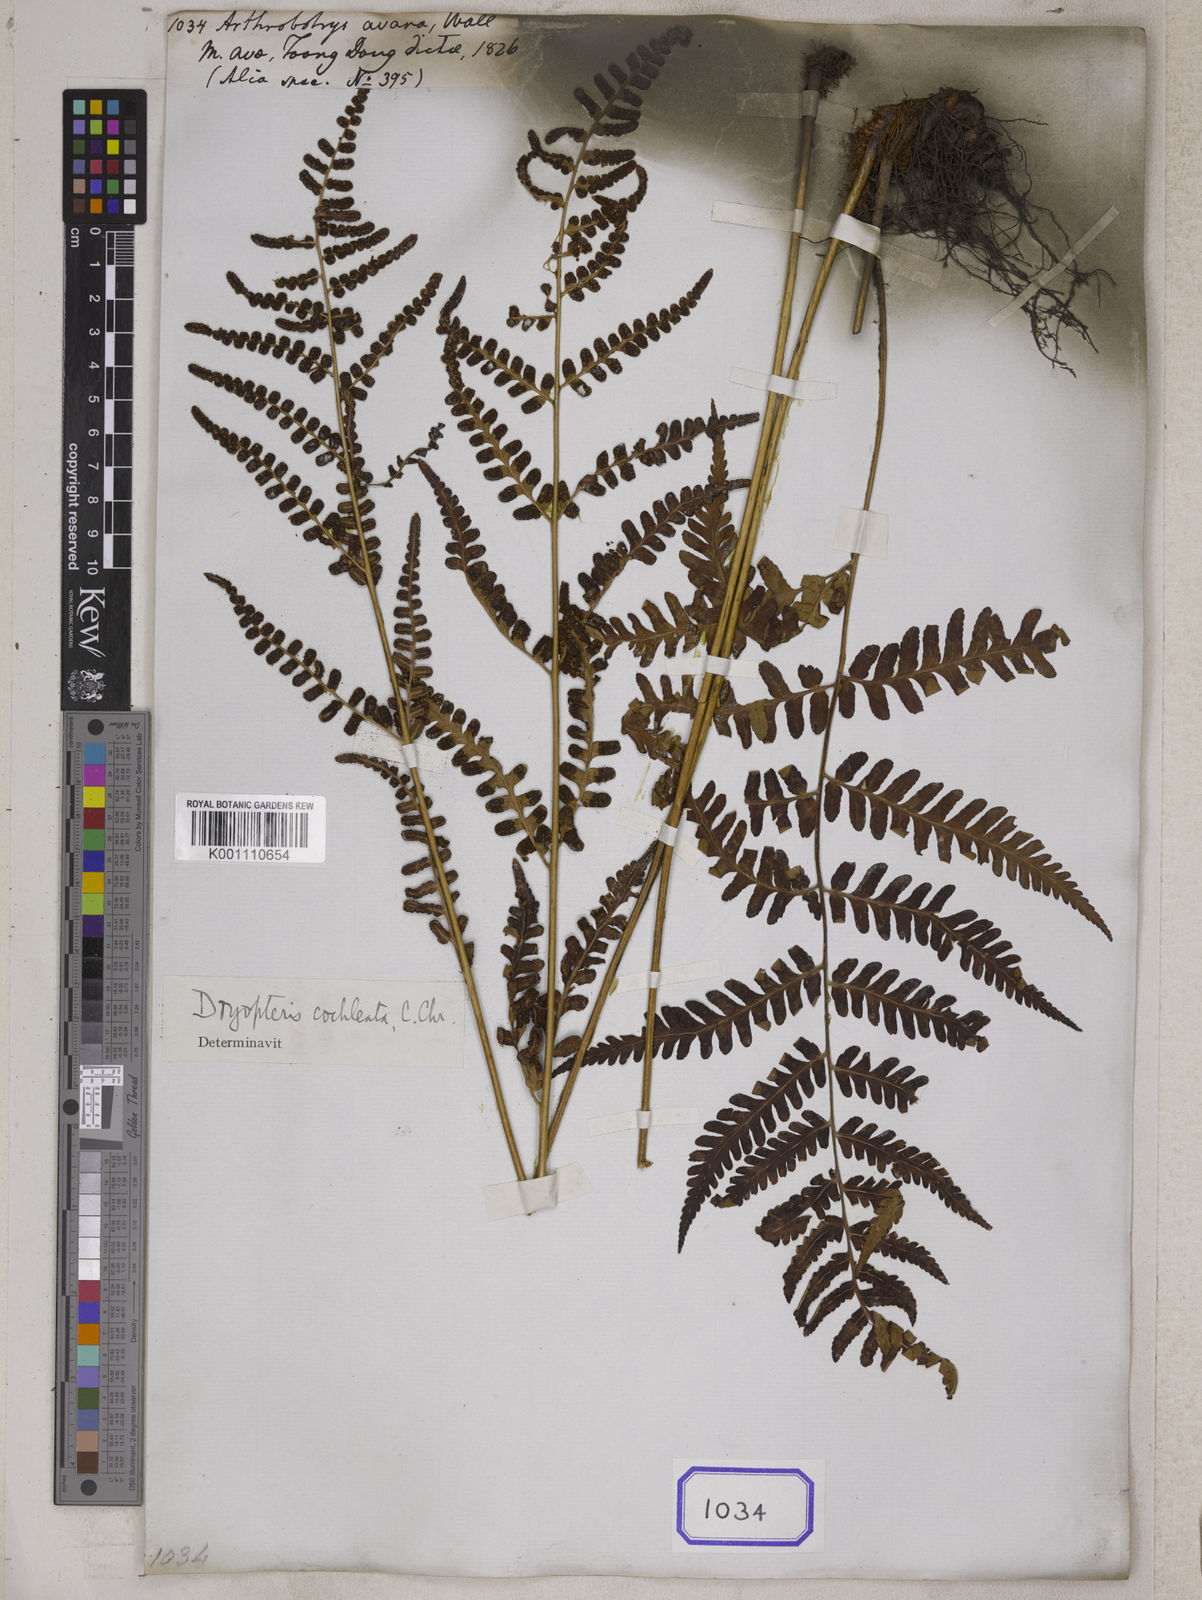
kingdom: Plantae
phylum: Tracheophyta
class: Polypodiopsida
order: Polypodiales
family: Dryopteridaceae
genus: Dryopteris
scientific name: Dryopteris cochleata
